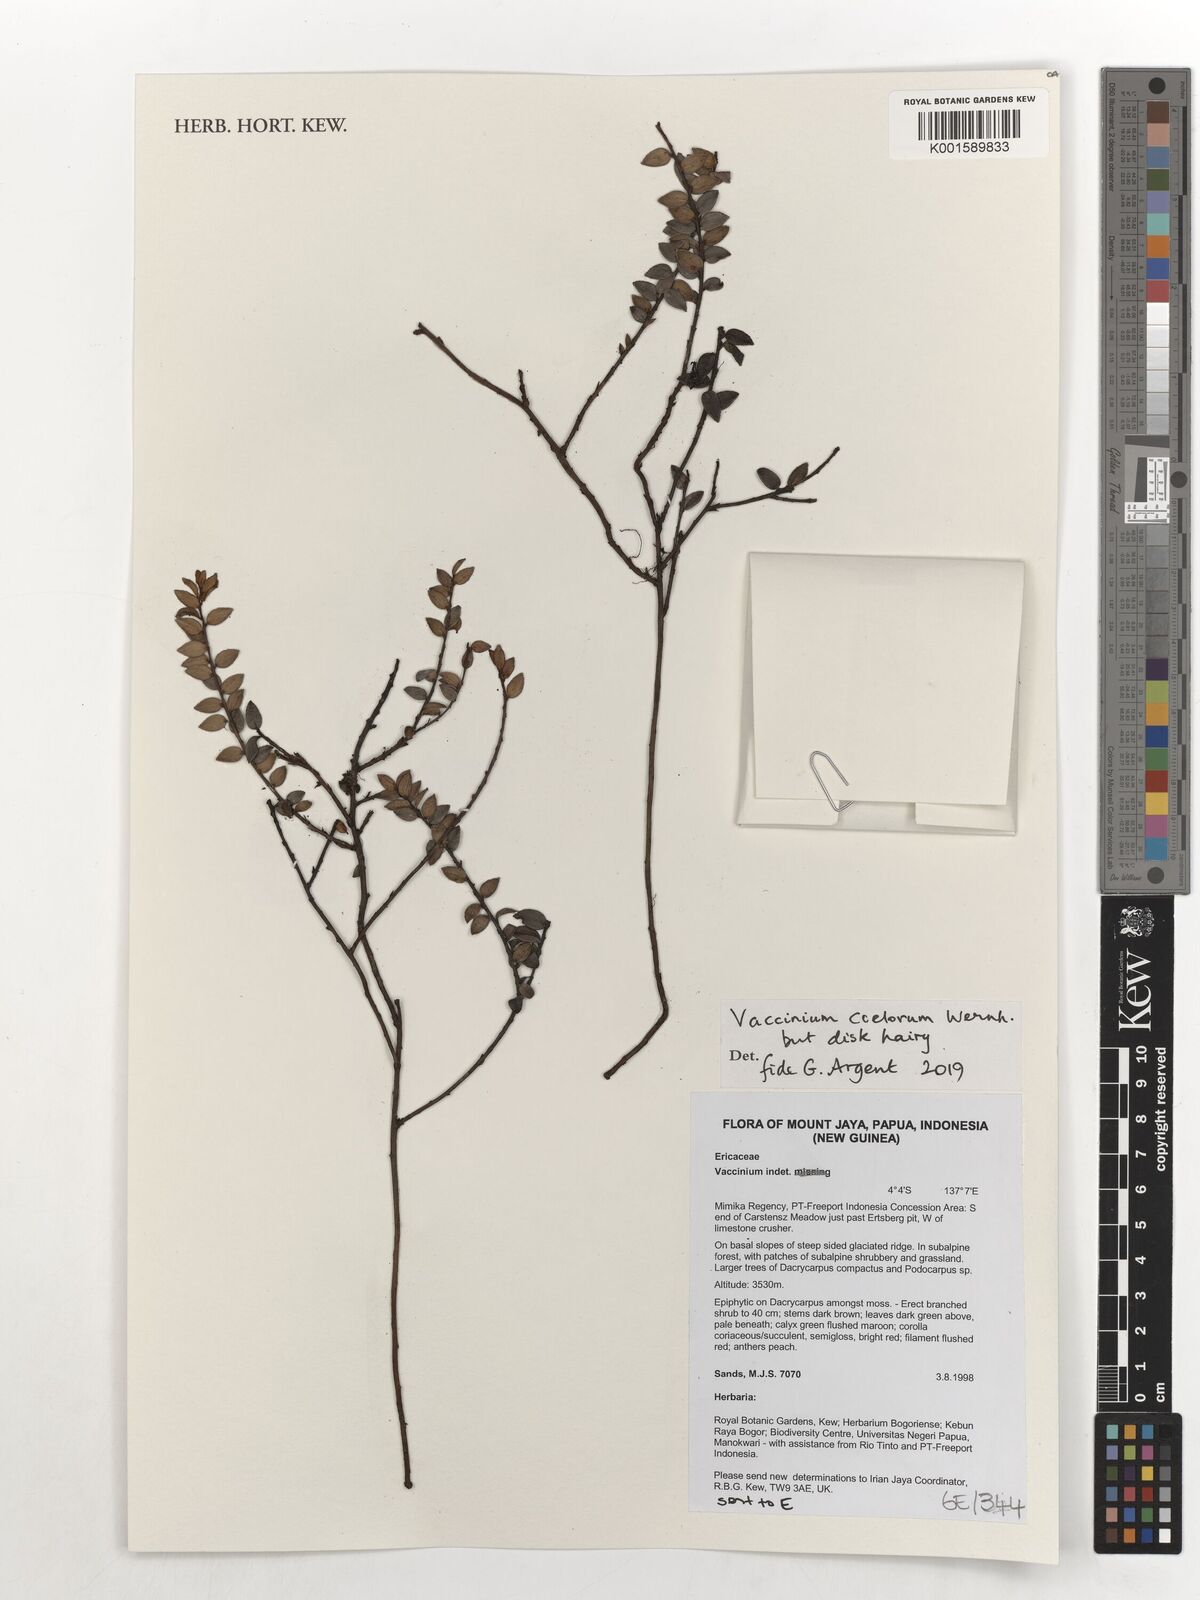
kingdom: Plantae
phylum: Tracheophyta
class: Magnoliopsida
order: Ericales
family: Ericaceae
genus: Vaccinium
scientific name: Vaccinium coelorum
